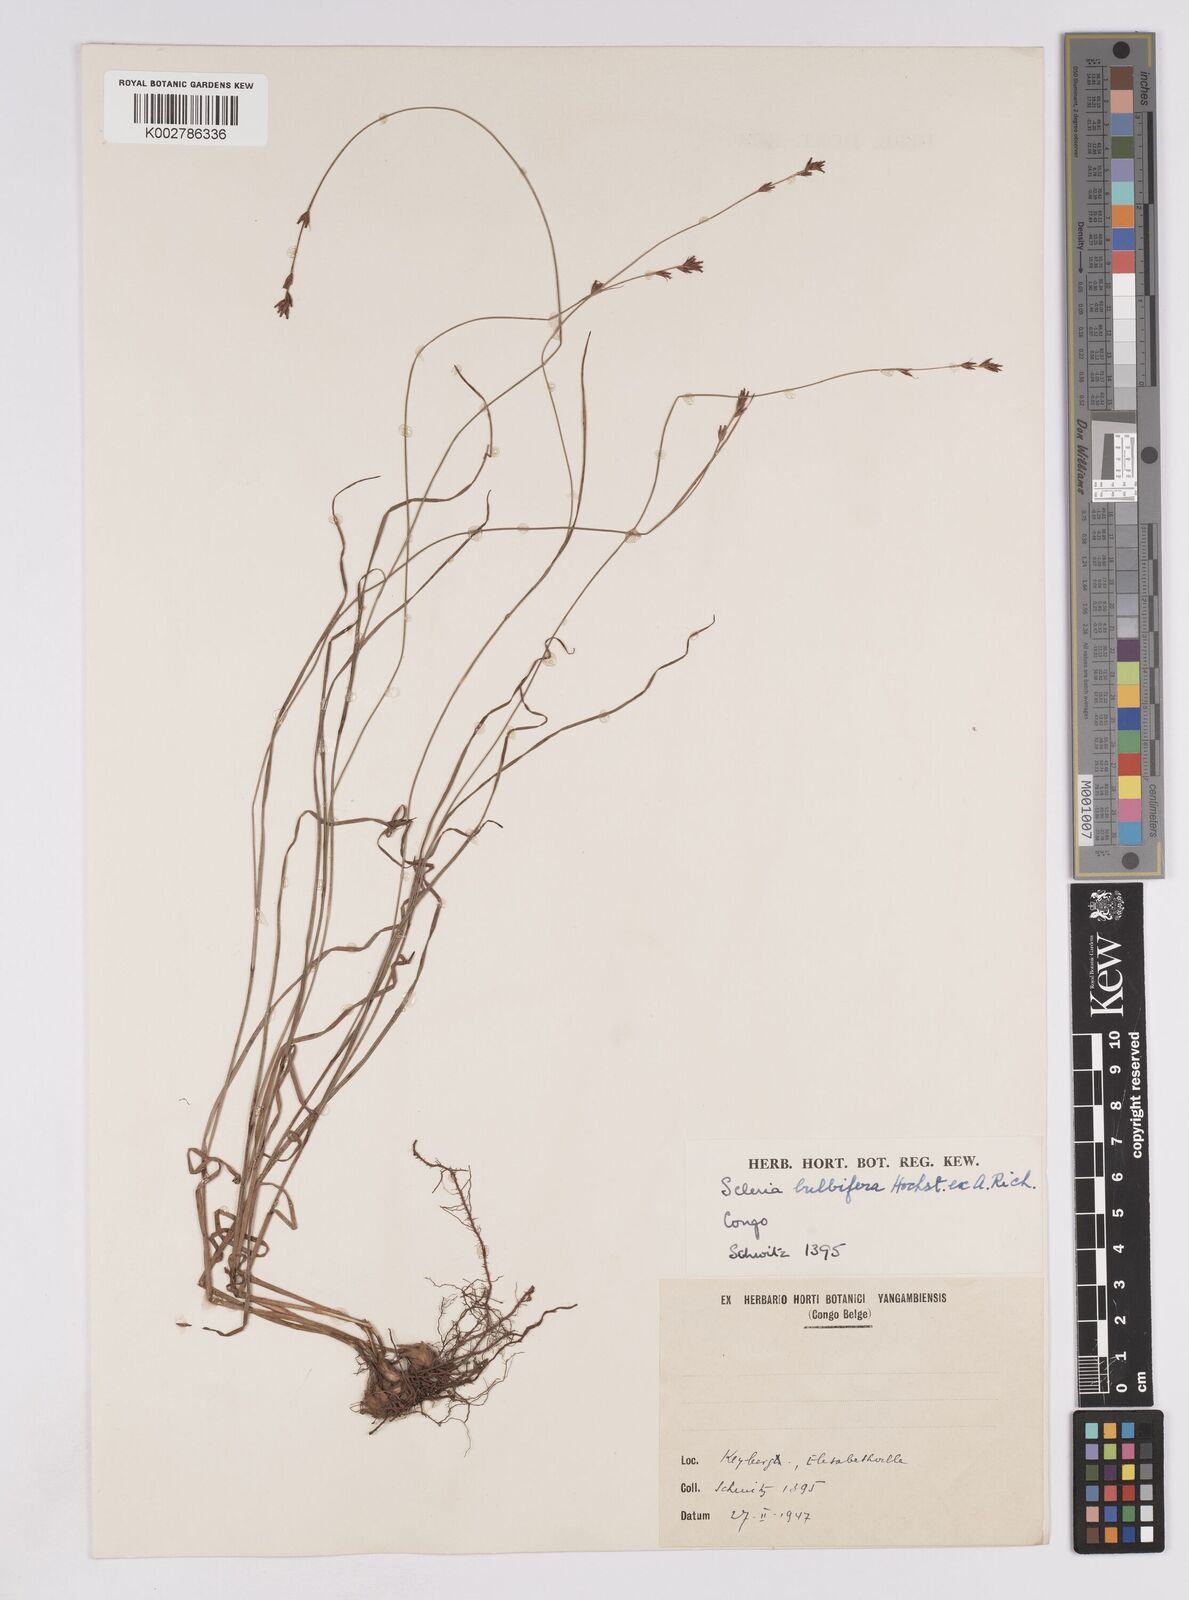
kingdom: Plantae
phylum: Tracheophyta
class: Liliopsida
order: Poales
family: Cyperaceae
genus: Scleria
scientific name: Scleria bulbifera
